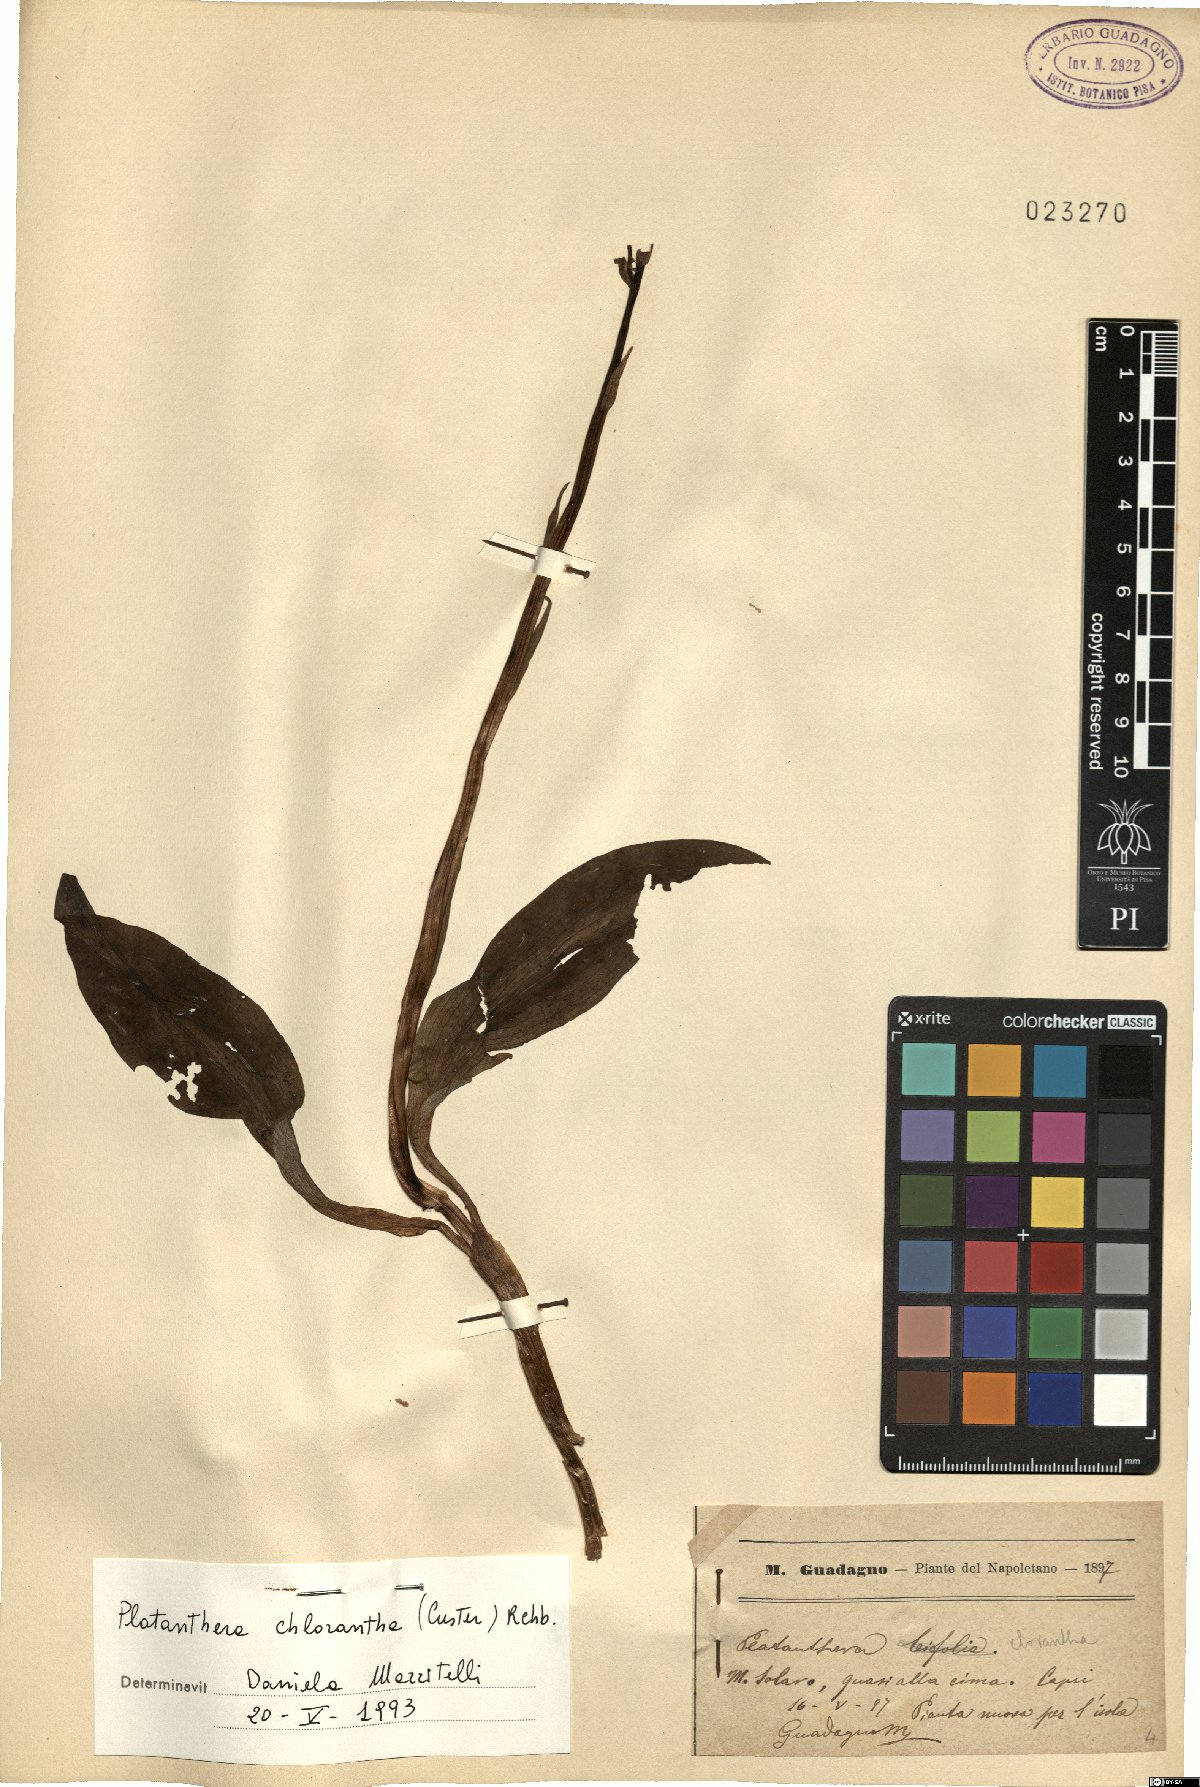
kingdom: Plantae
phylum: Tracheophyta
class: Liliopsida
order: Asparagales
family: Orchidaceae
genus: Platanthera
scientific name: Platanthera chlorantha
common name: Greater butterfly-orchid
